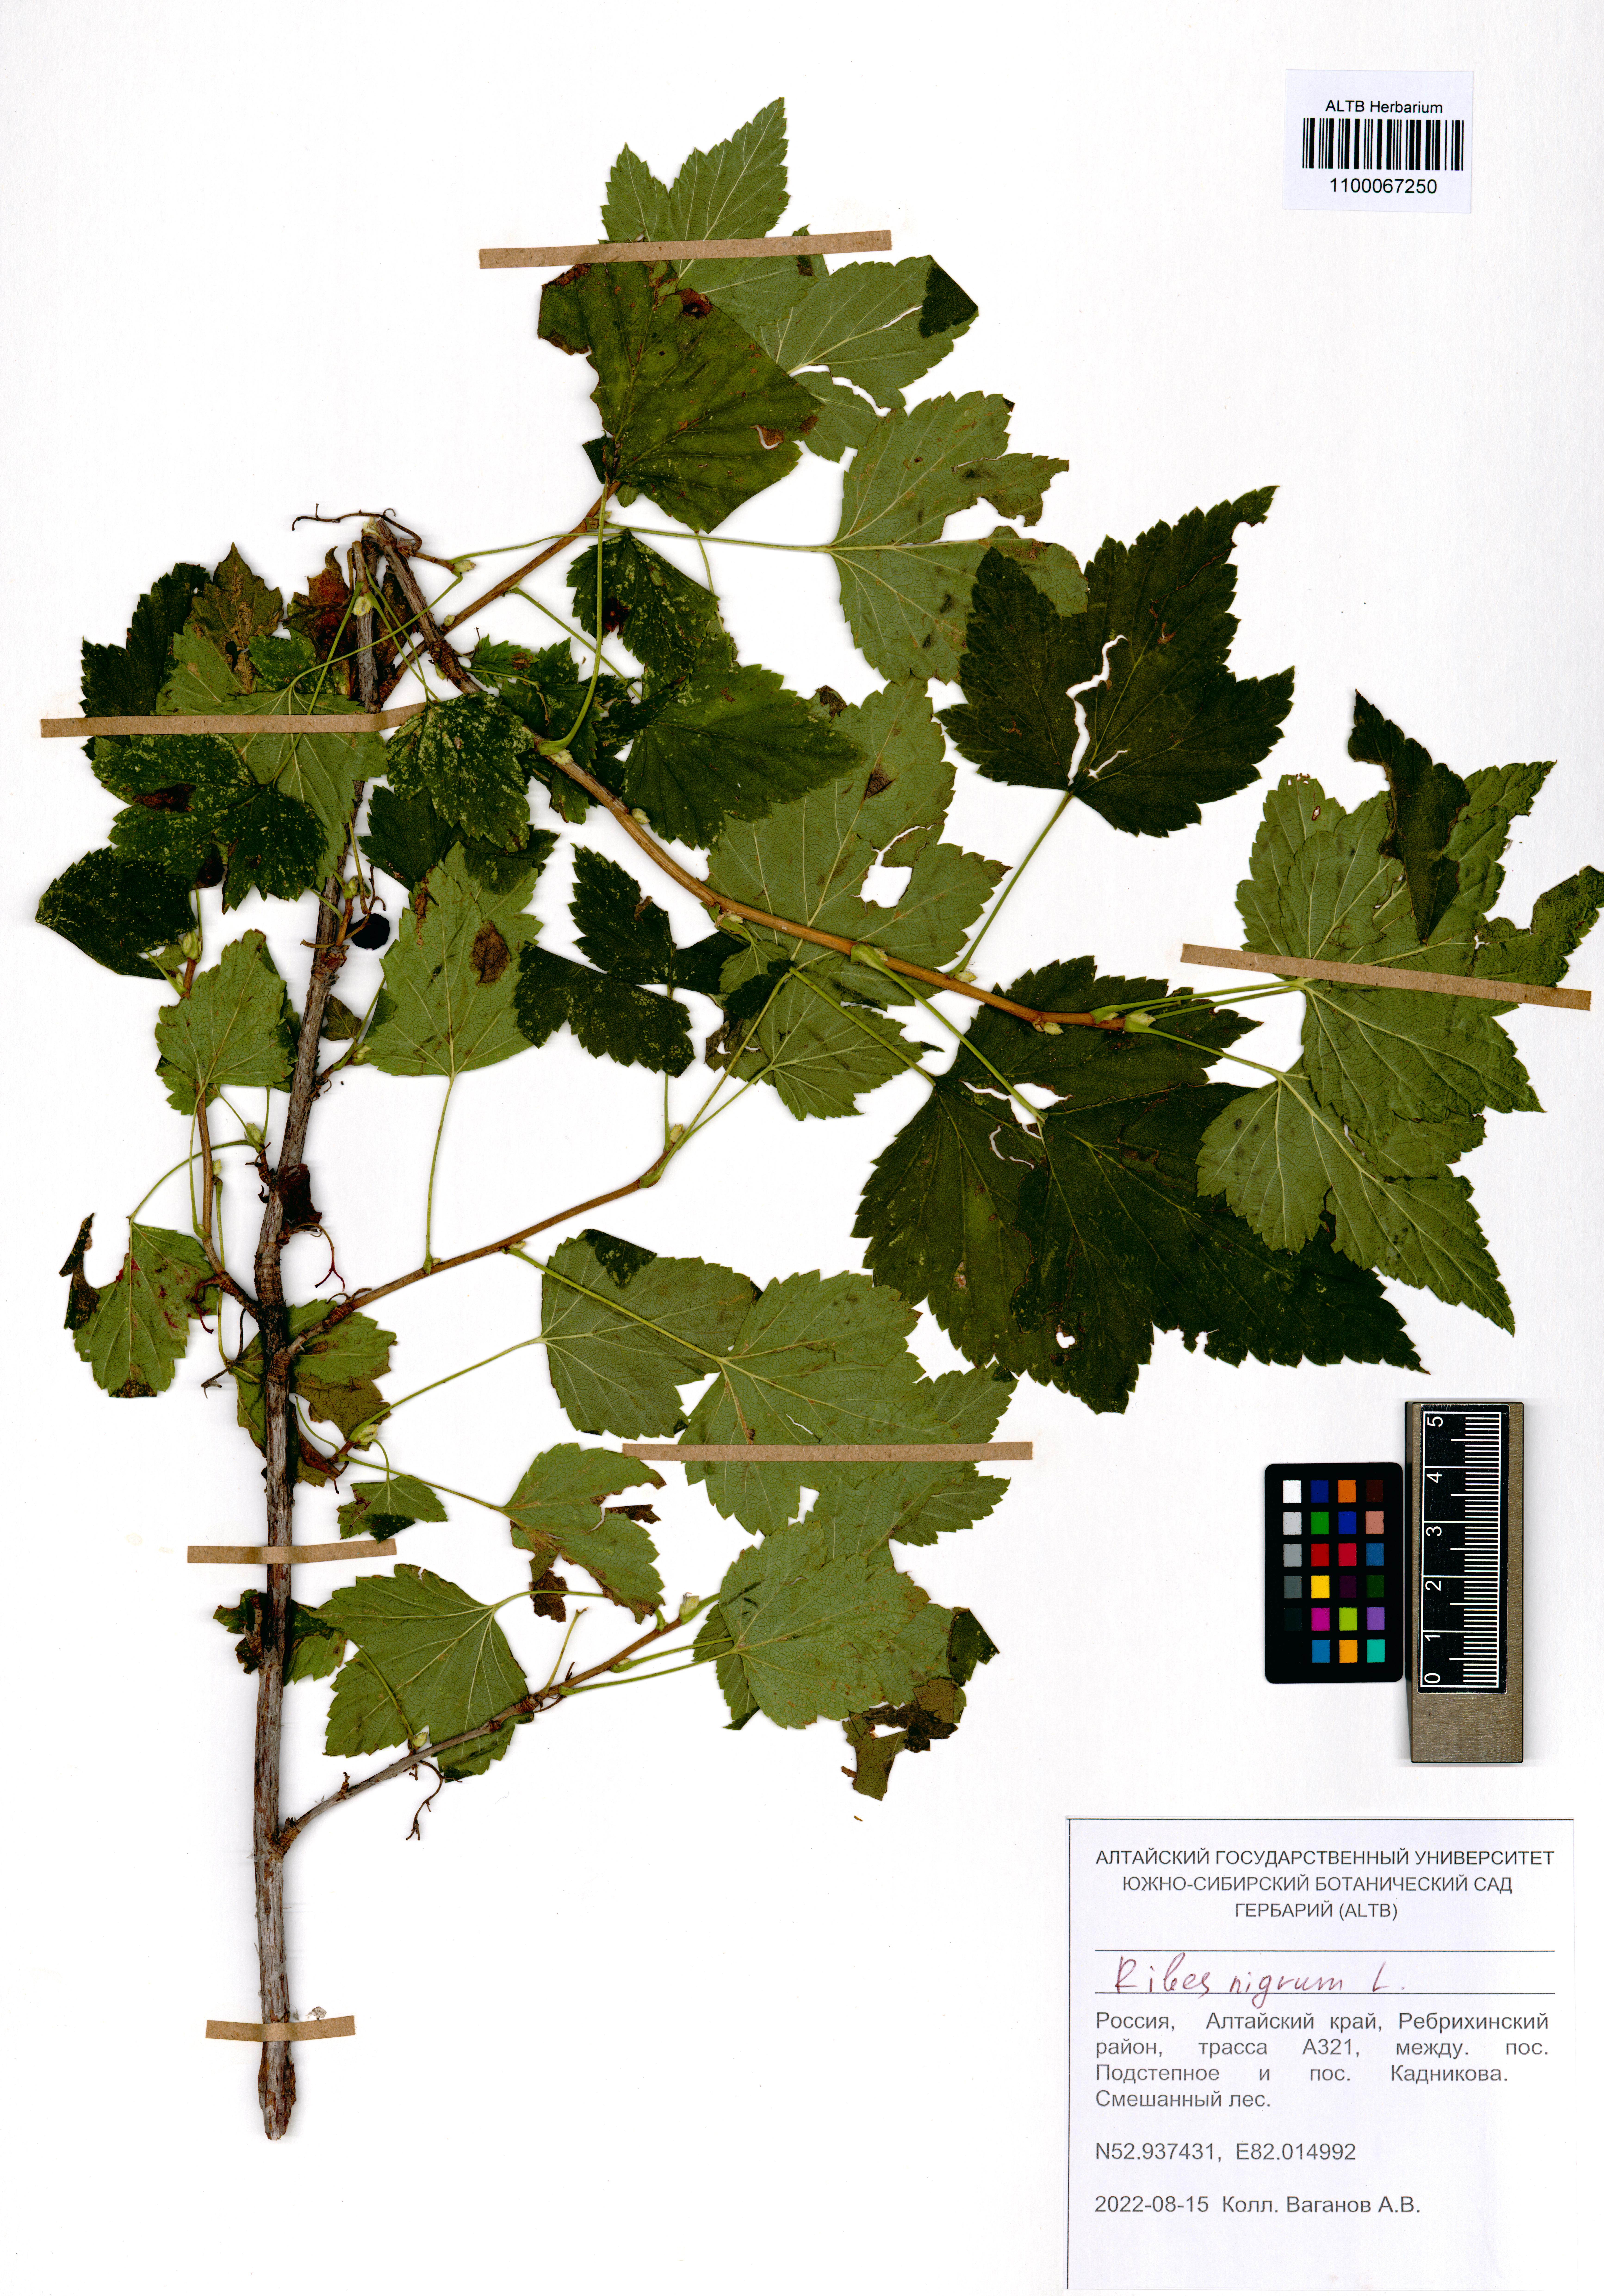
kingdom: Plantae
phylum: Tracheophyta
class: Magnoliopsida
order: Saxifragales
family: Grossulariaceae
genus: Ribes
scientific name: Ribes nigrum
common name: Black currant
